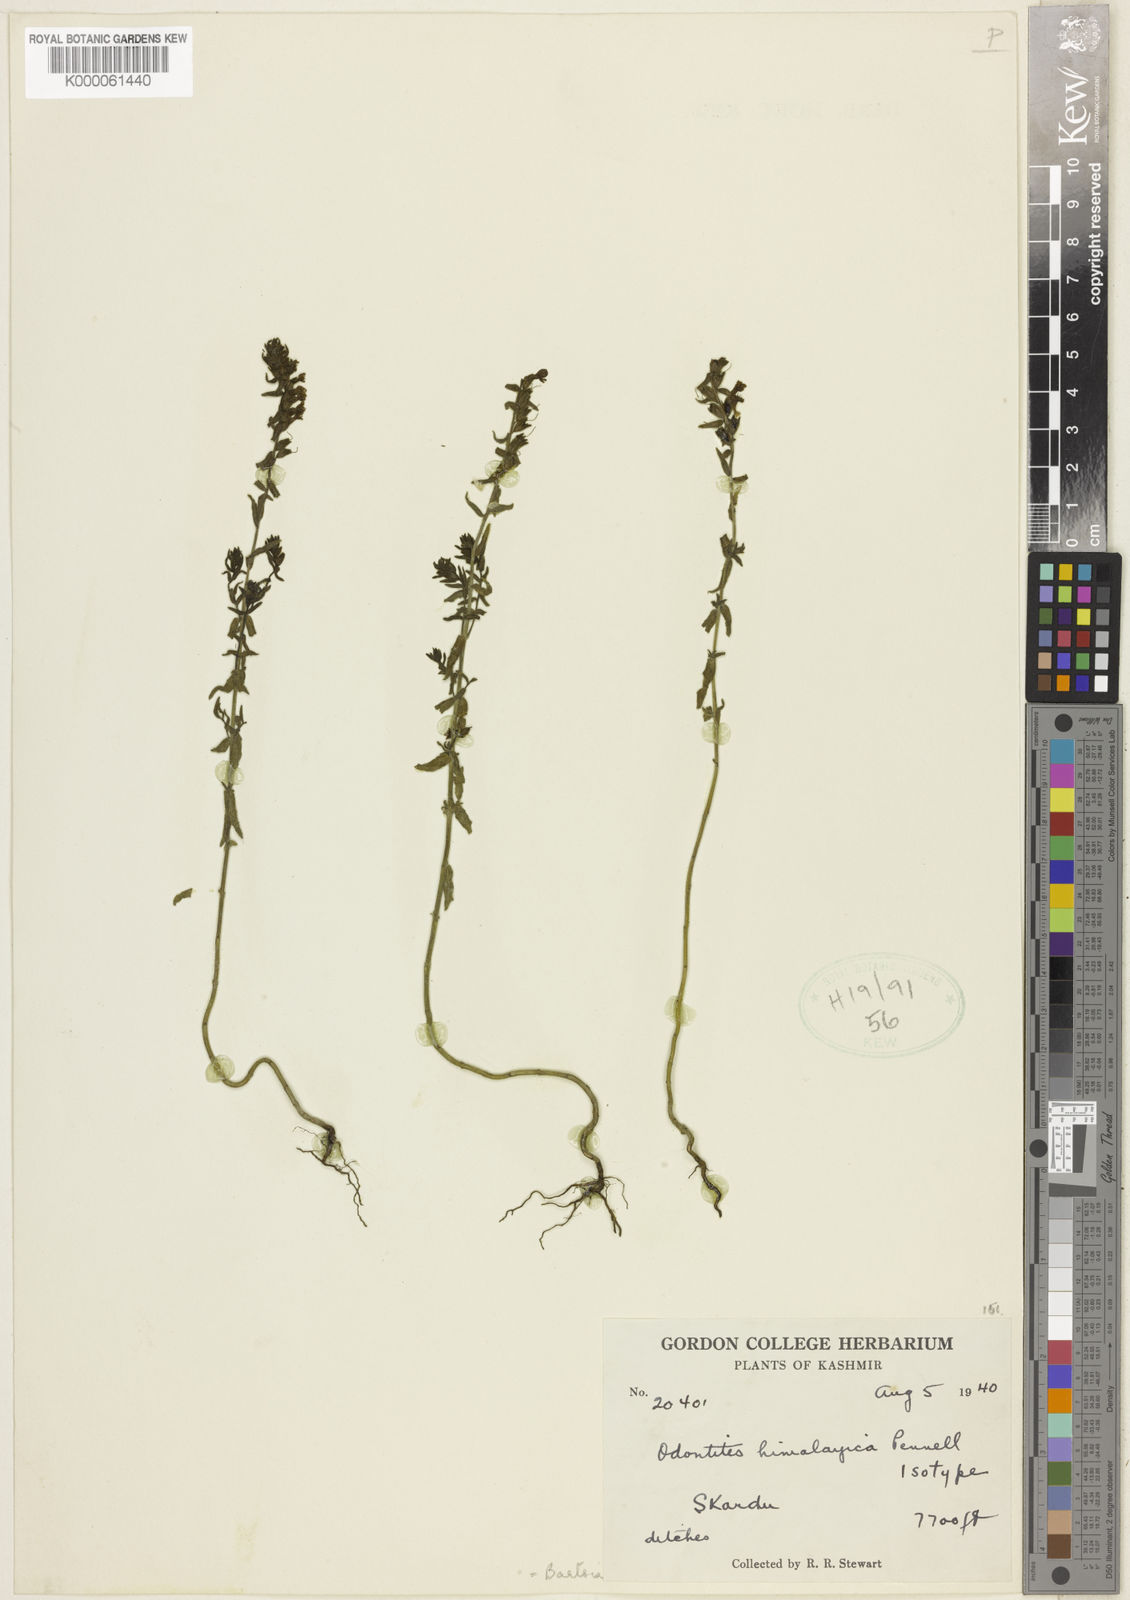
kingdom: Plantae
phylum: Tracheophyta
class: Magnoliopsida
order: Lamiales
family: Orobanchaceae
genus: Odontites
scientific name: Odontites vernus
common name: Red bartsia
